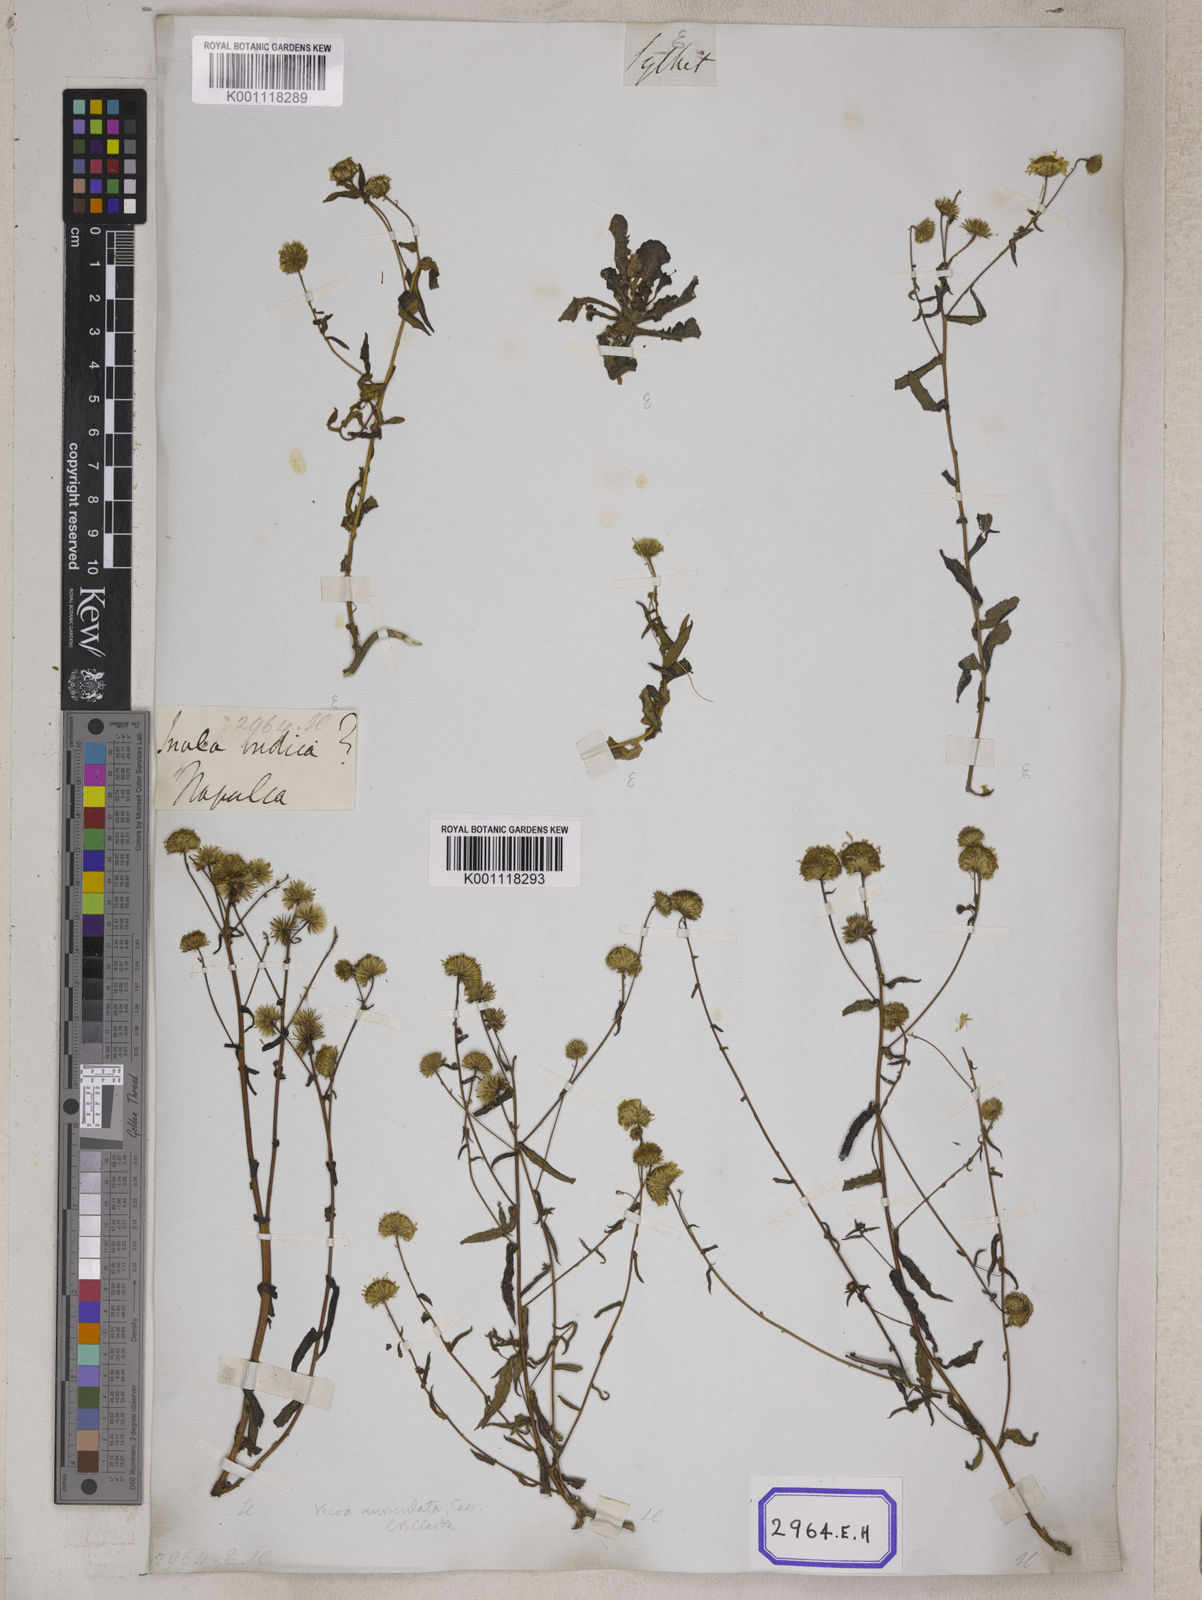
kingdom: Plantae
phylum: Tracheophyta
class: Magnoliopsida
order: Asterales
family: Asteraceae
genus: Vicoa
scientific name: Vicoa indica
